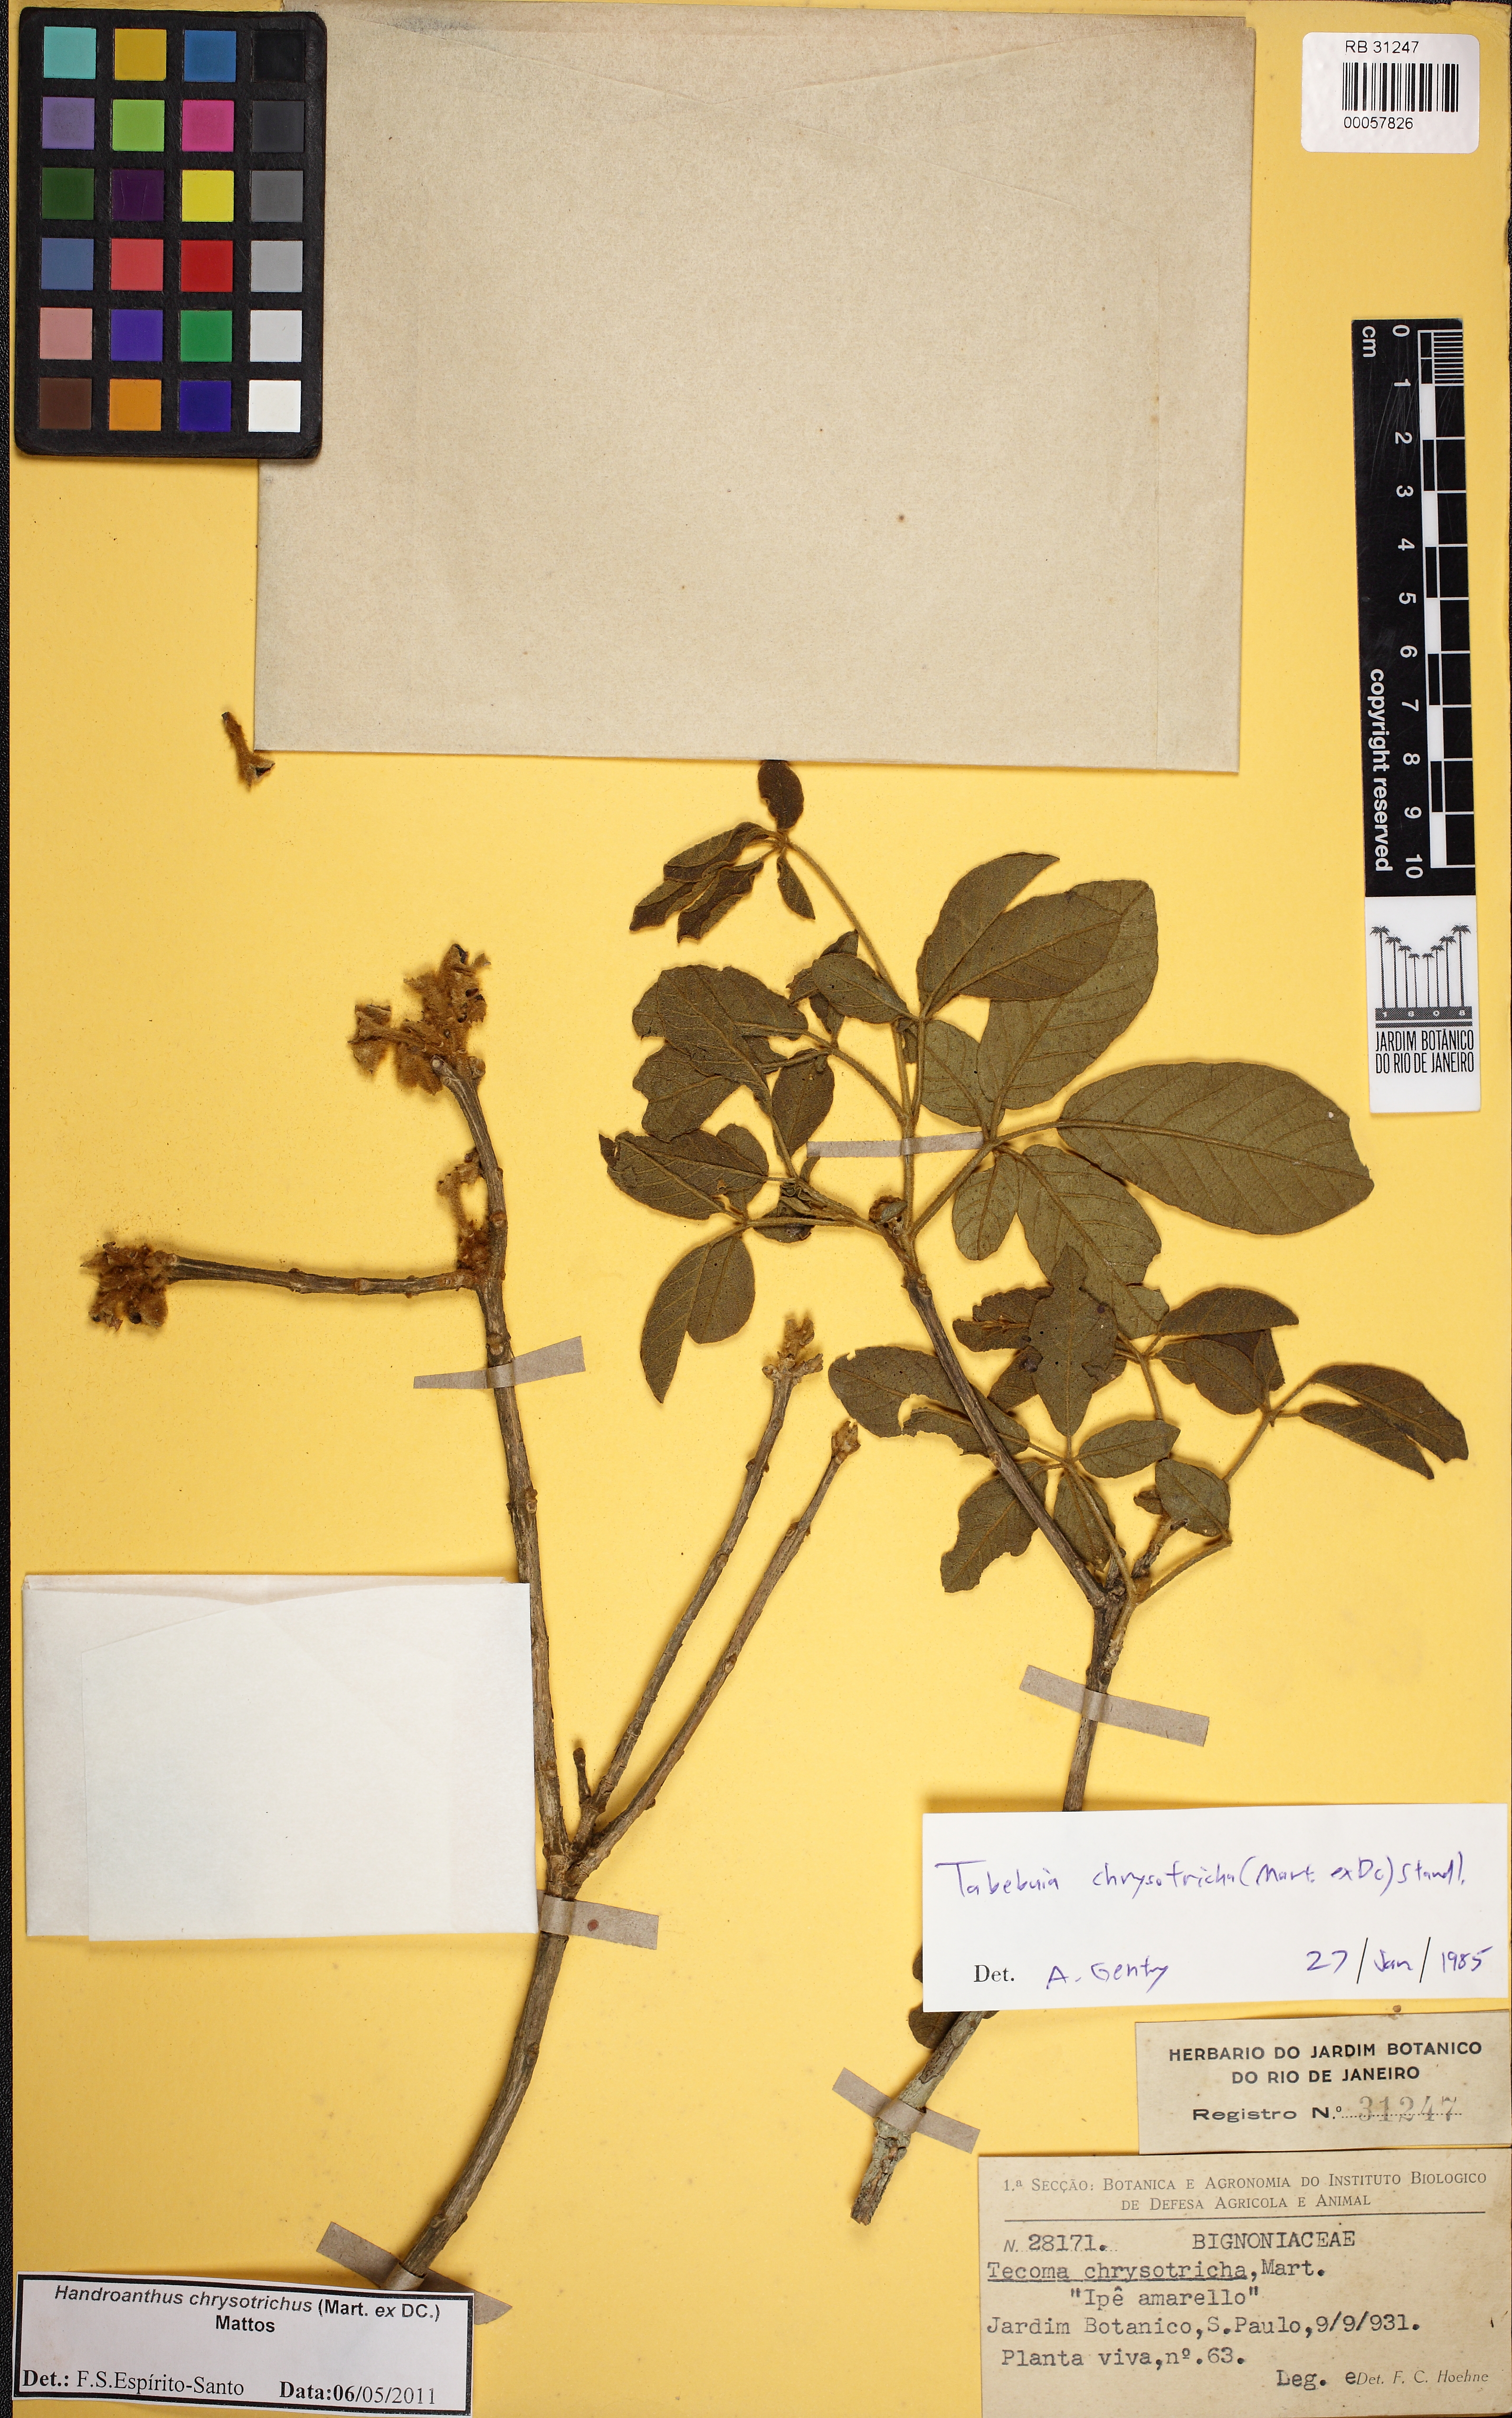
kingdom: Plantae
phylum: Tracheophyta
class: Magnoliopsida
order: Lamiales
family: Bignoniaceae
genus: Handroanthus
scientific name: Handroanthus chrysotrichus
